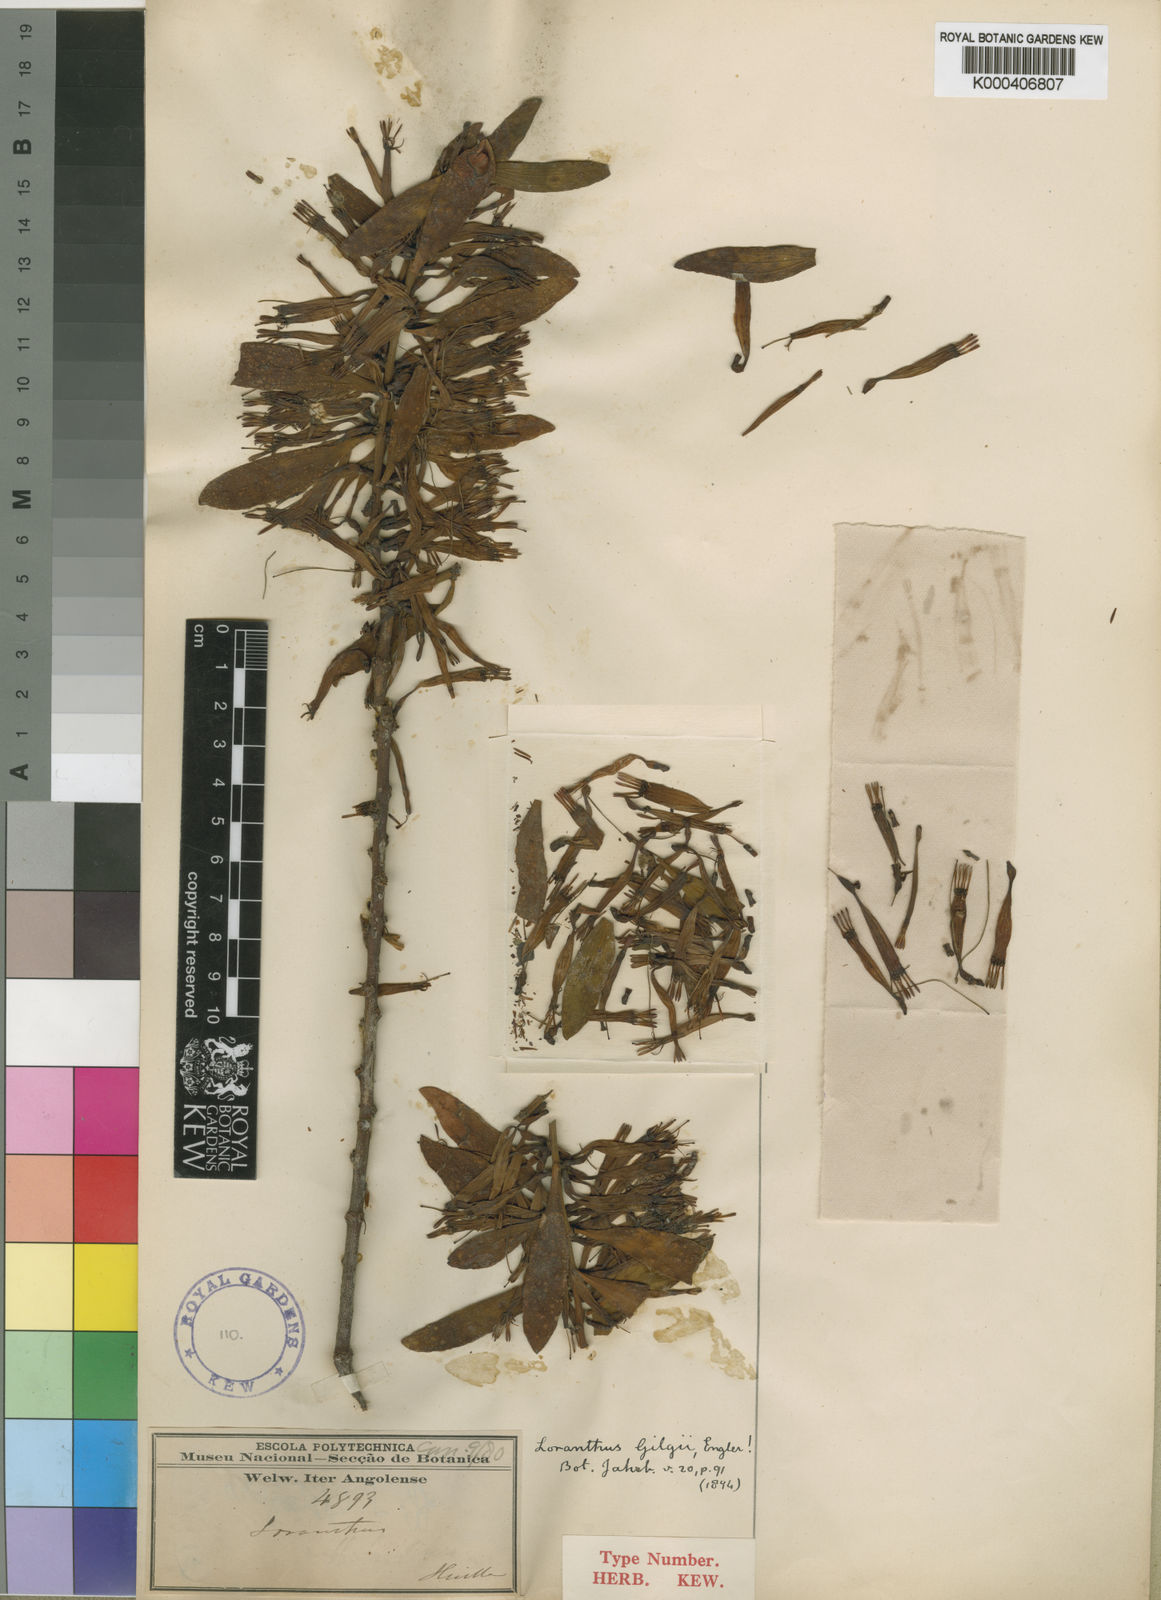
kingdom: Plantae
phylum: Tracheophyta
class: Magnoliopsida
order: Santalales
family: Loranthaceae
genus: Agelanthus
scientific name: Agelanthus glomeratus
